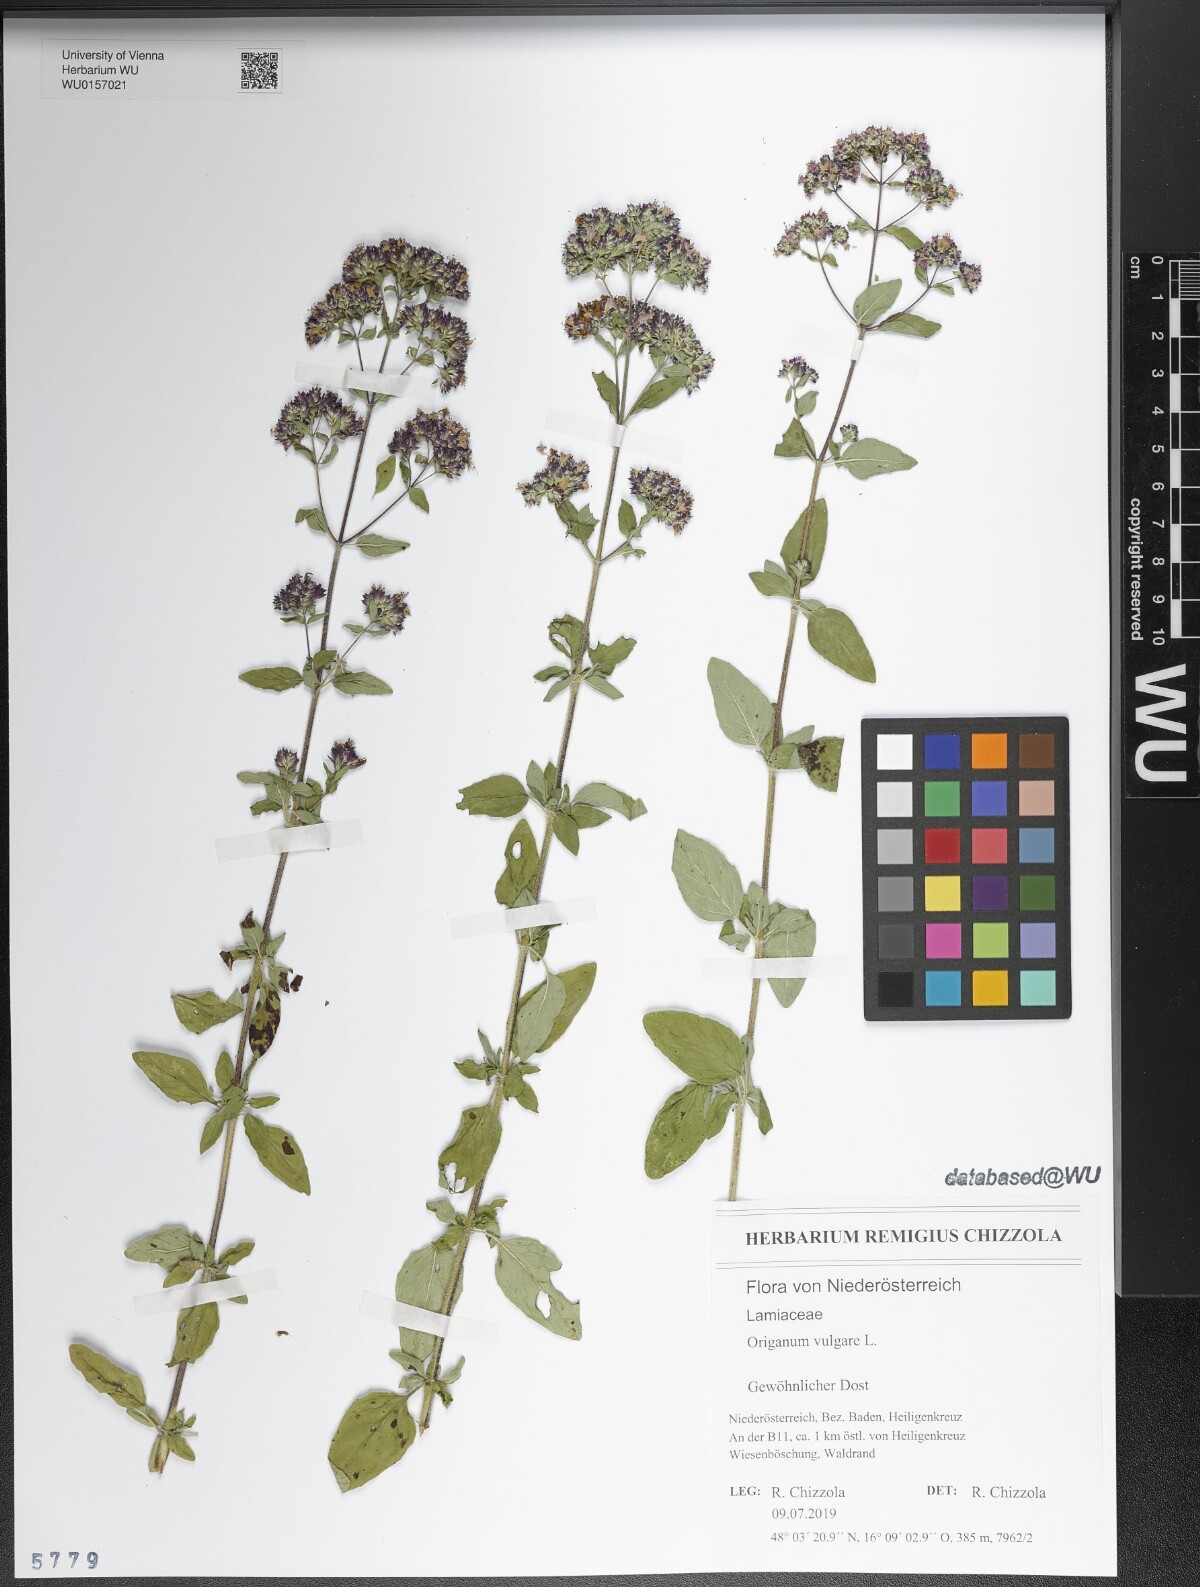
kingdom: Plantae
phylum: Tracheophyta
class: Magnoliopsida
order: Lamiales
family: Lamiaceae
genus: Origanum
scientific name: Origanum vulgare
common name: Wild marjoram
